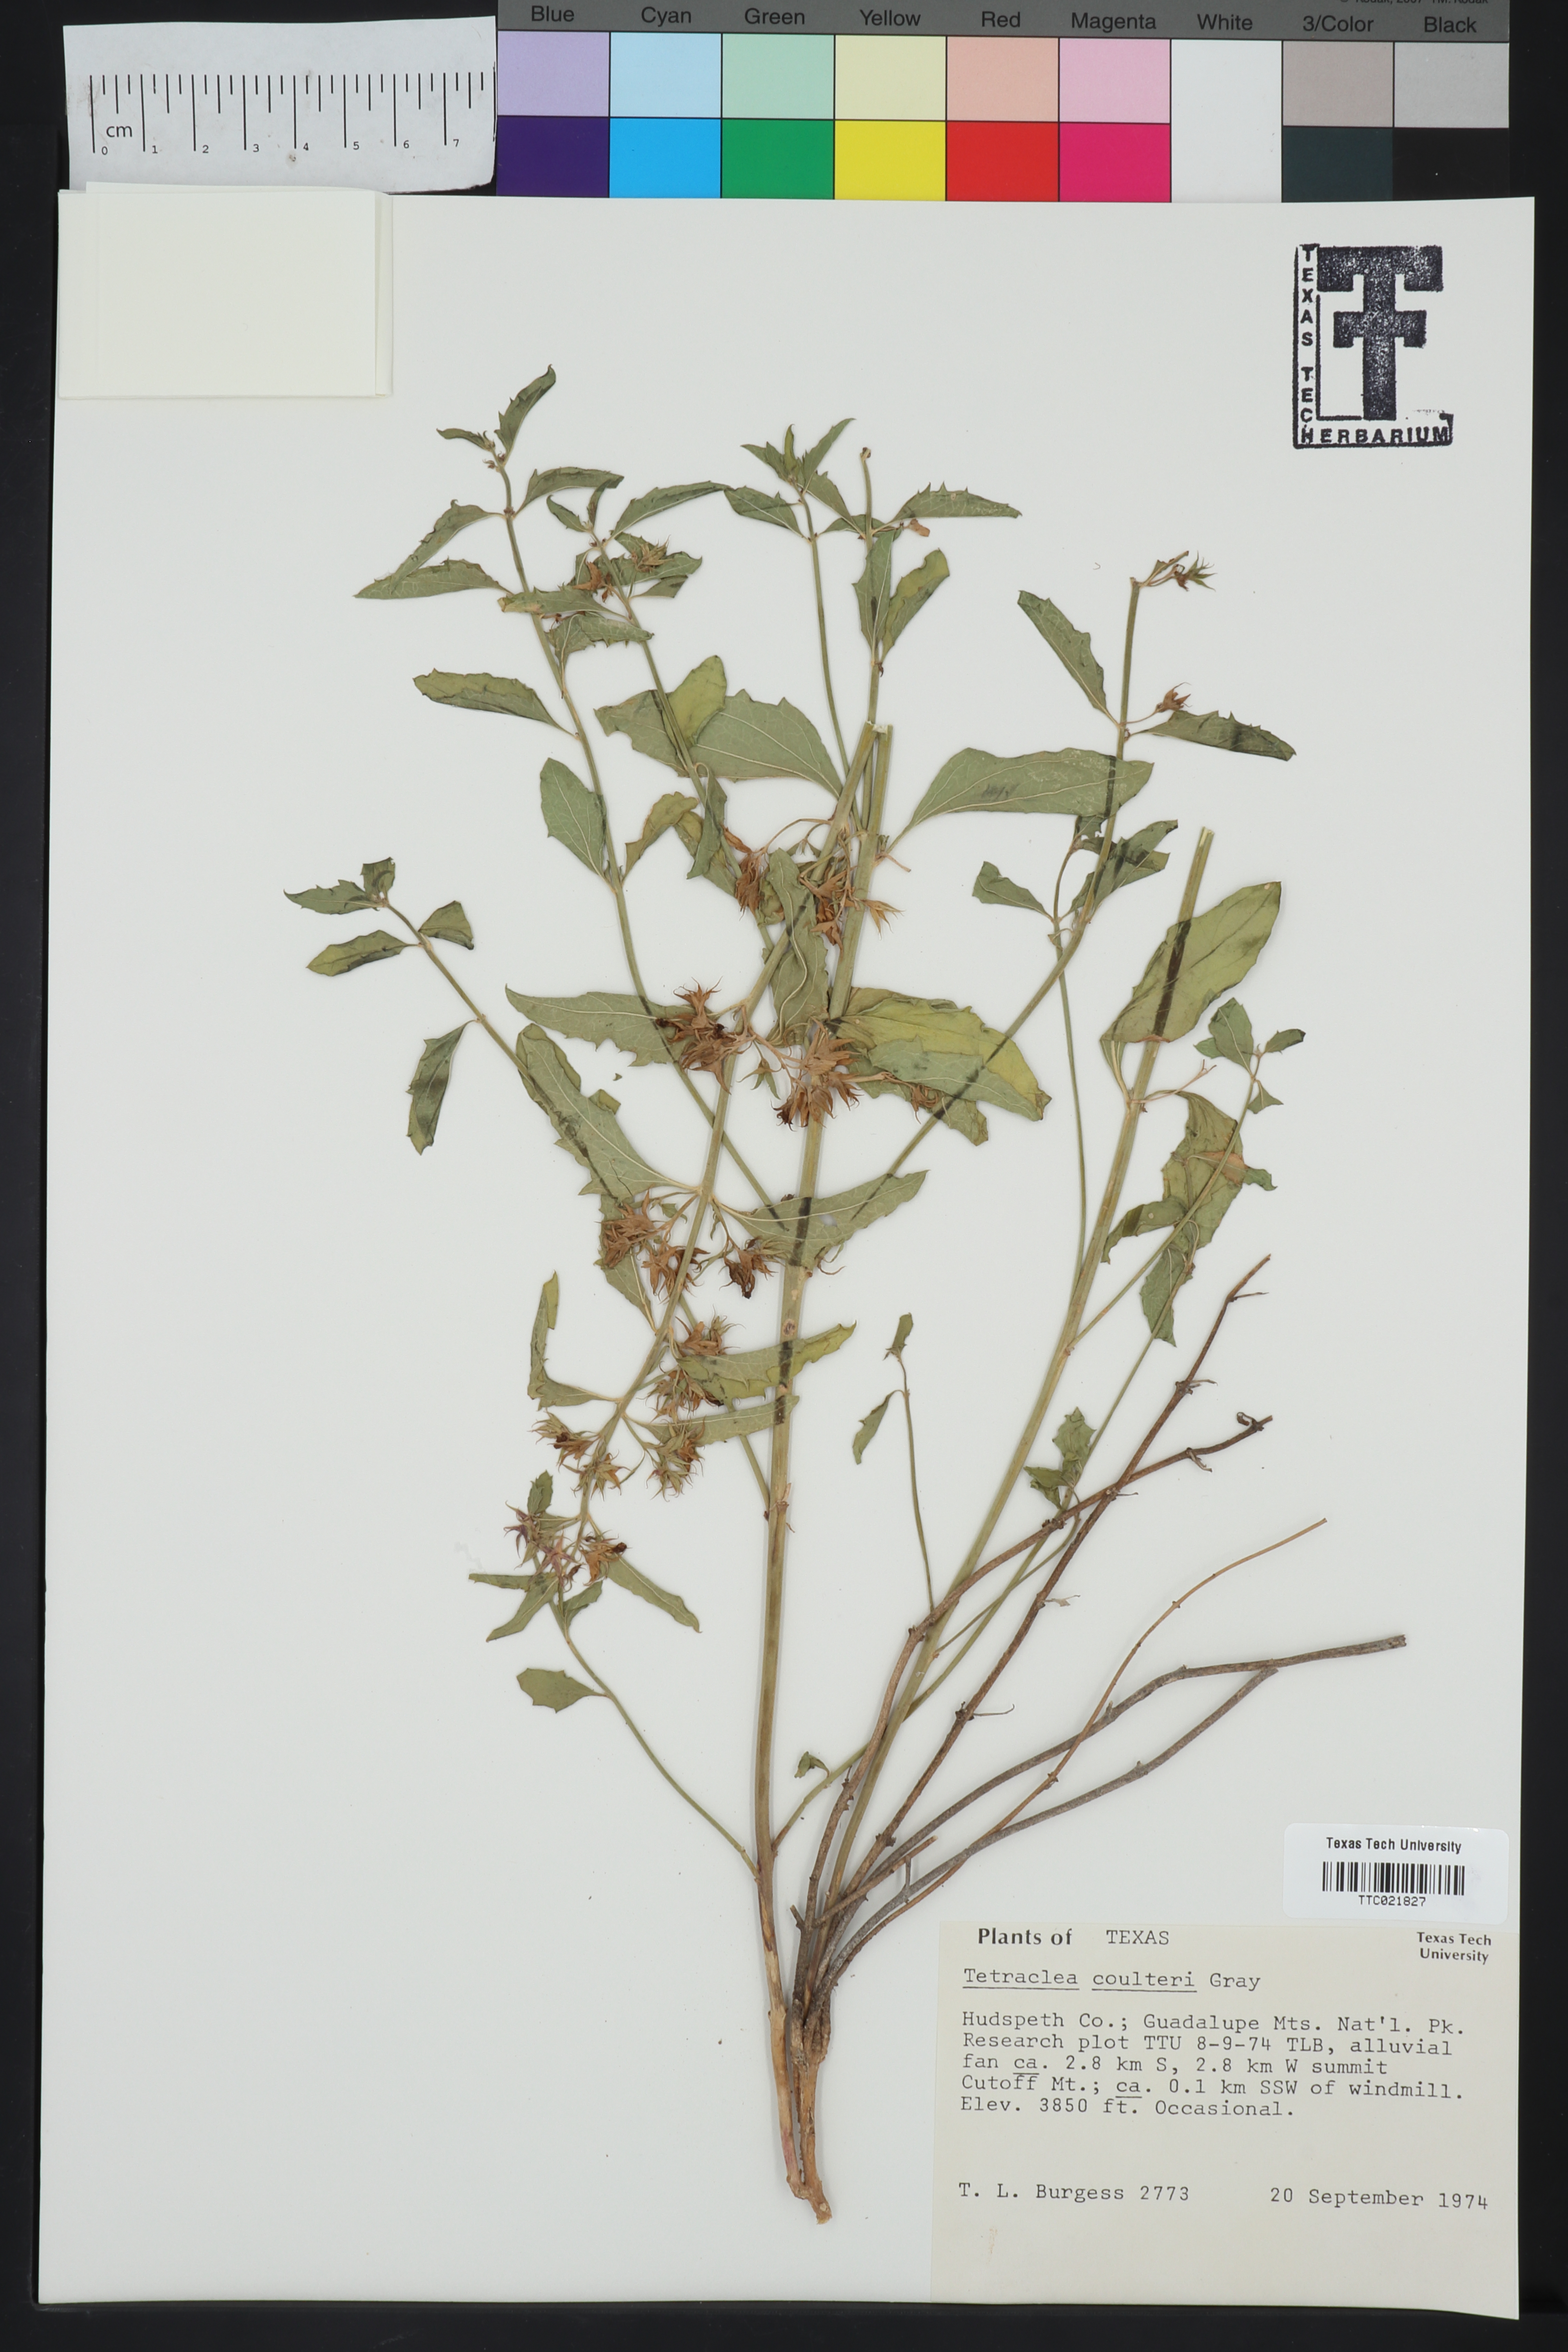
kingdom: Plantae
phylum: Tracheophyta
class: Magnoliopsida
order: Lamiales
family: Lamiaceae
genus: Tetraclea
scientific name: Tetraclea coulteri
